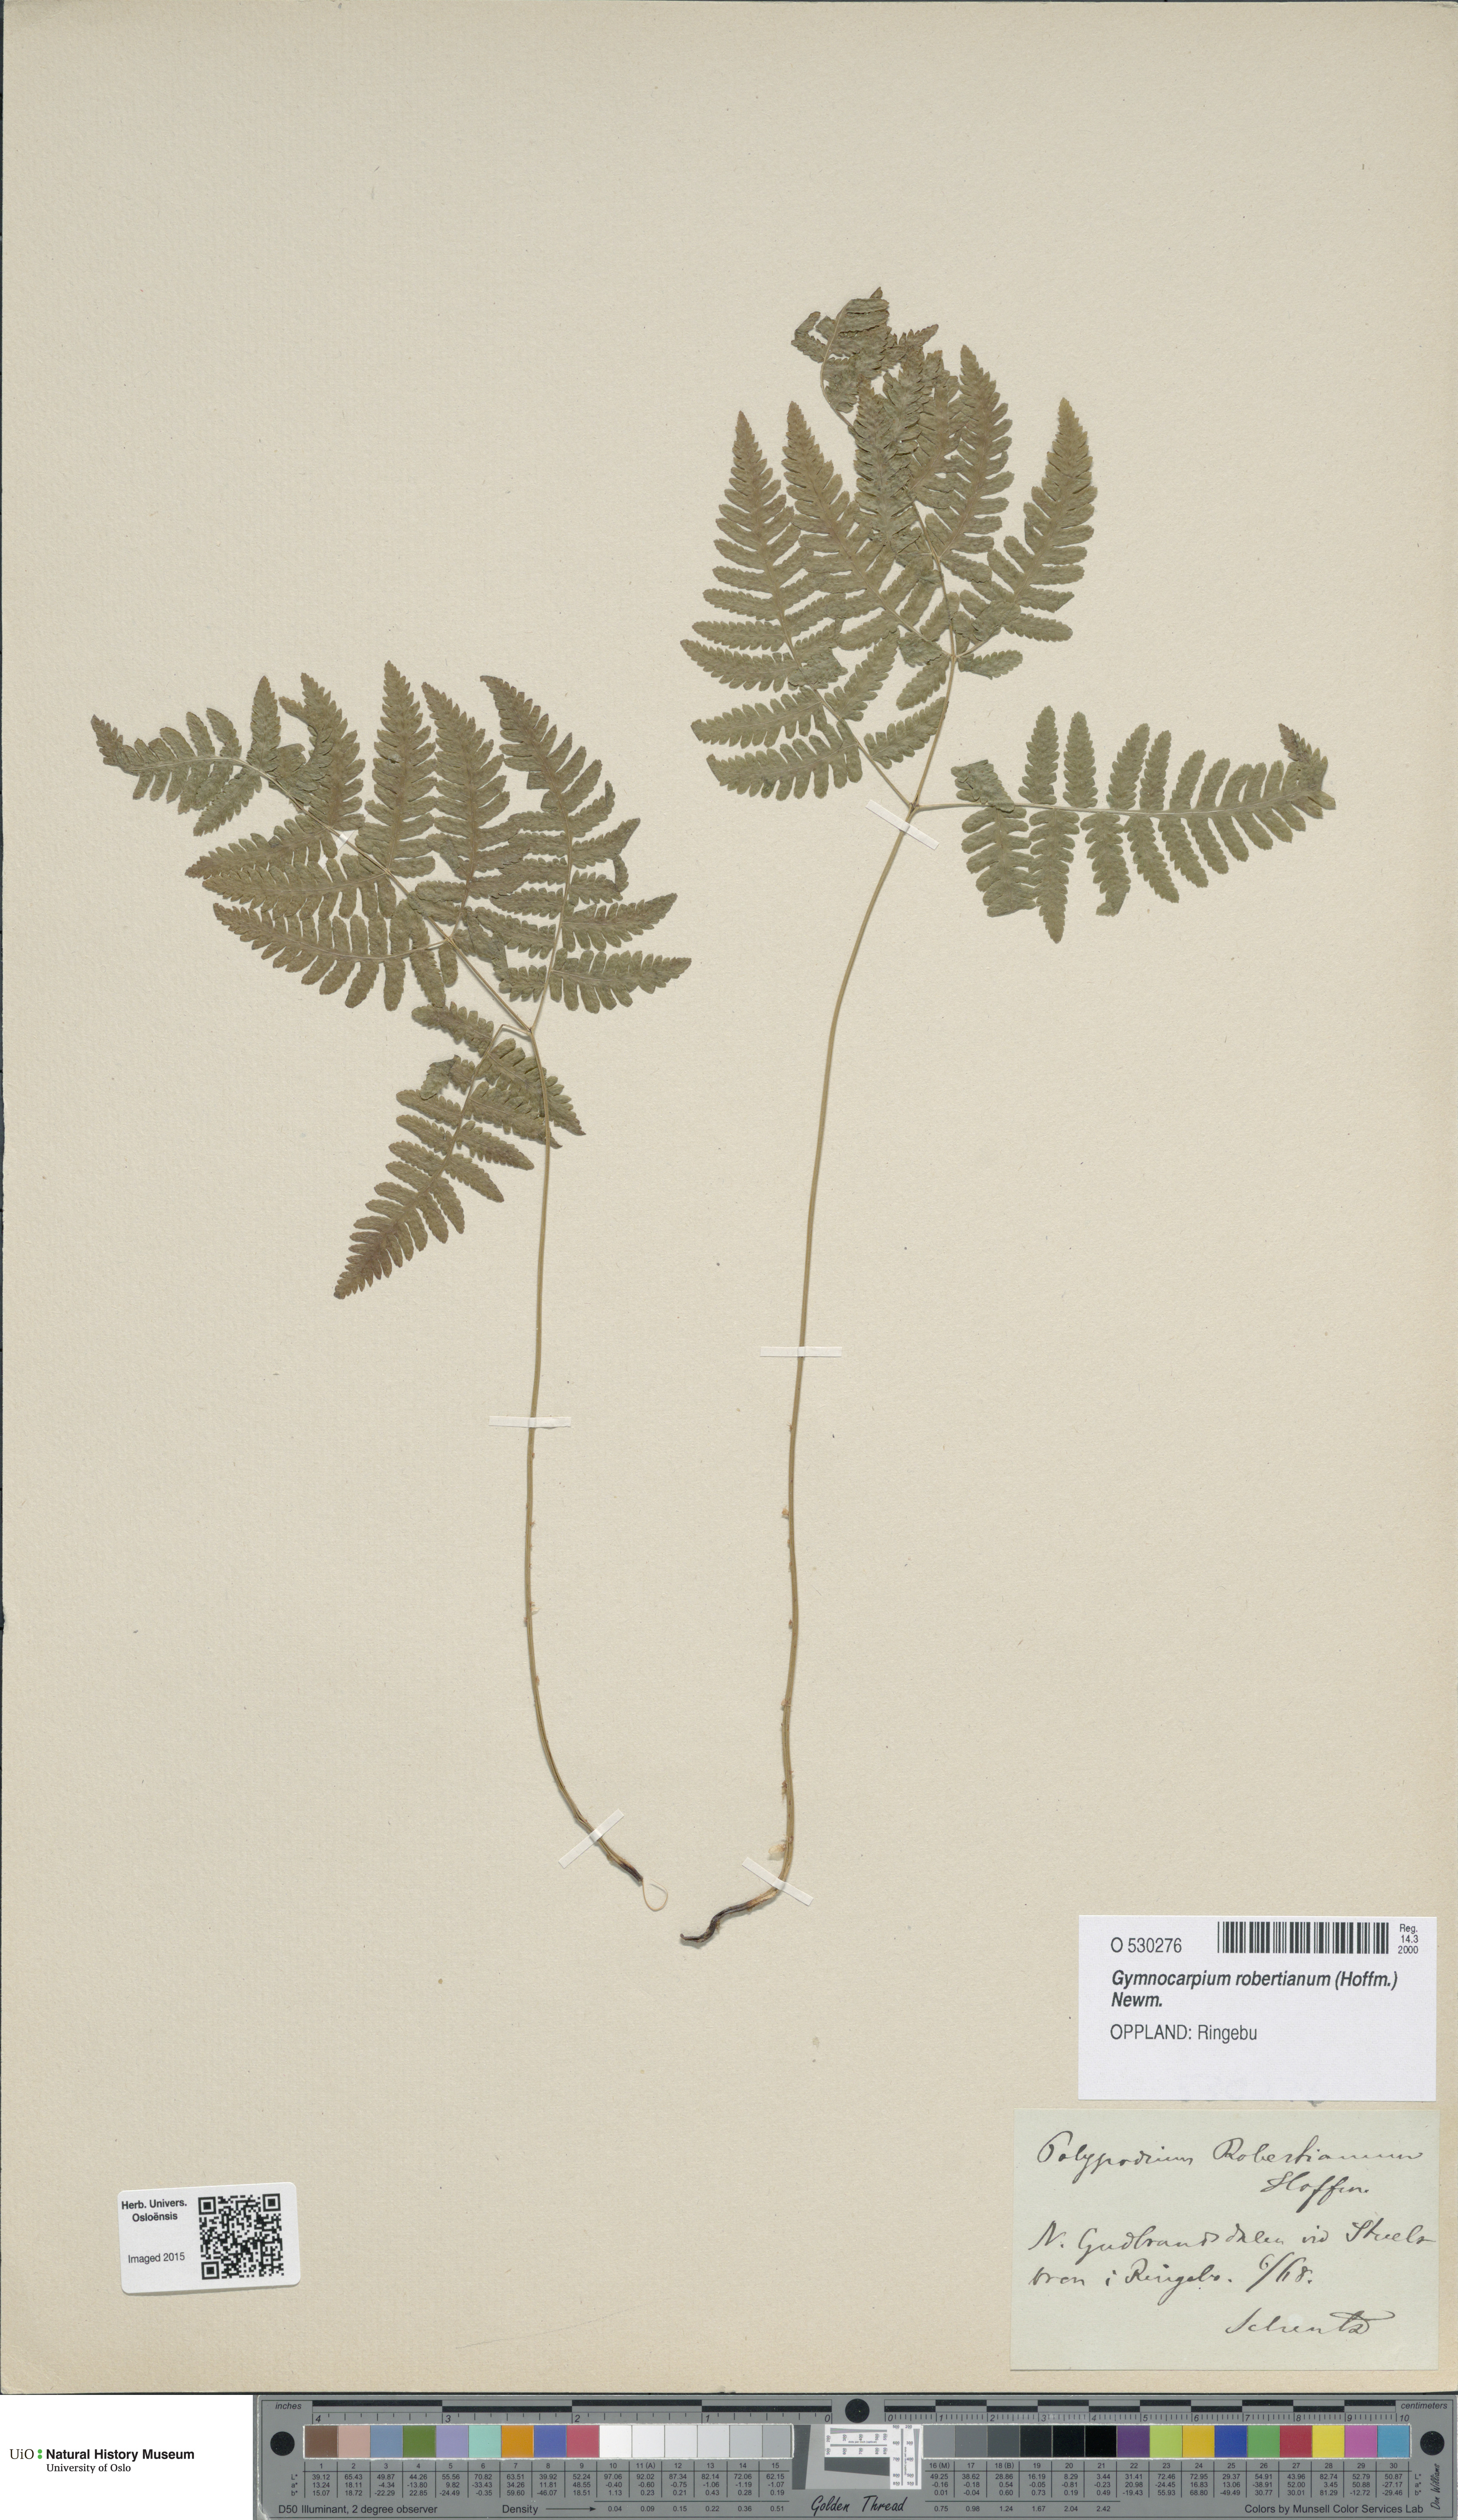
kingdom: Plantae
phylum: Tracheophyta
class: Polypodiopsida
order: Polypodiales
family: Cystopteridaceae
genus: Gymnocarpium
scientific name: Gymnocarpium robertianum
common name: Limestone fern
